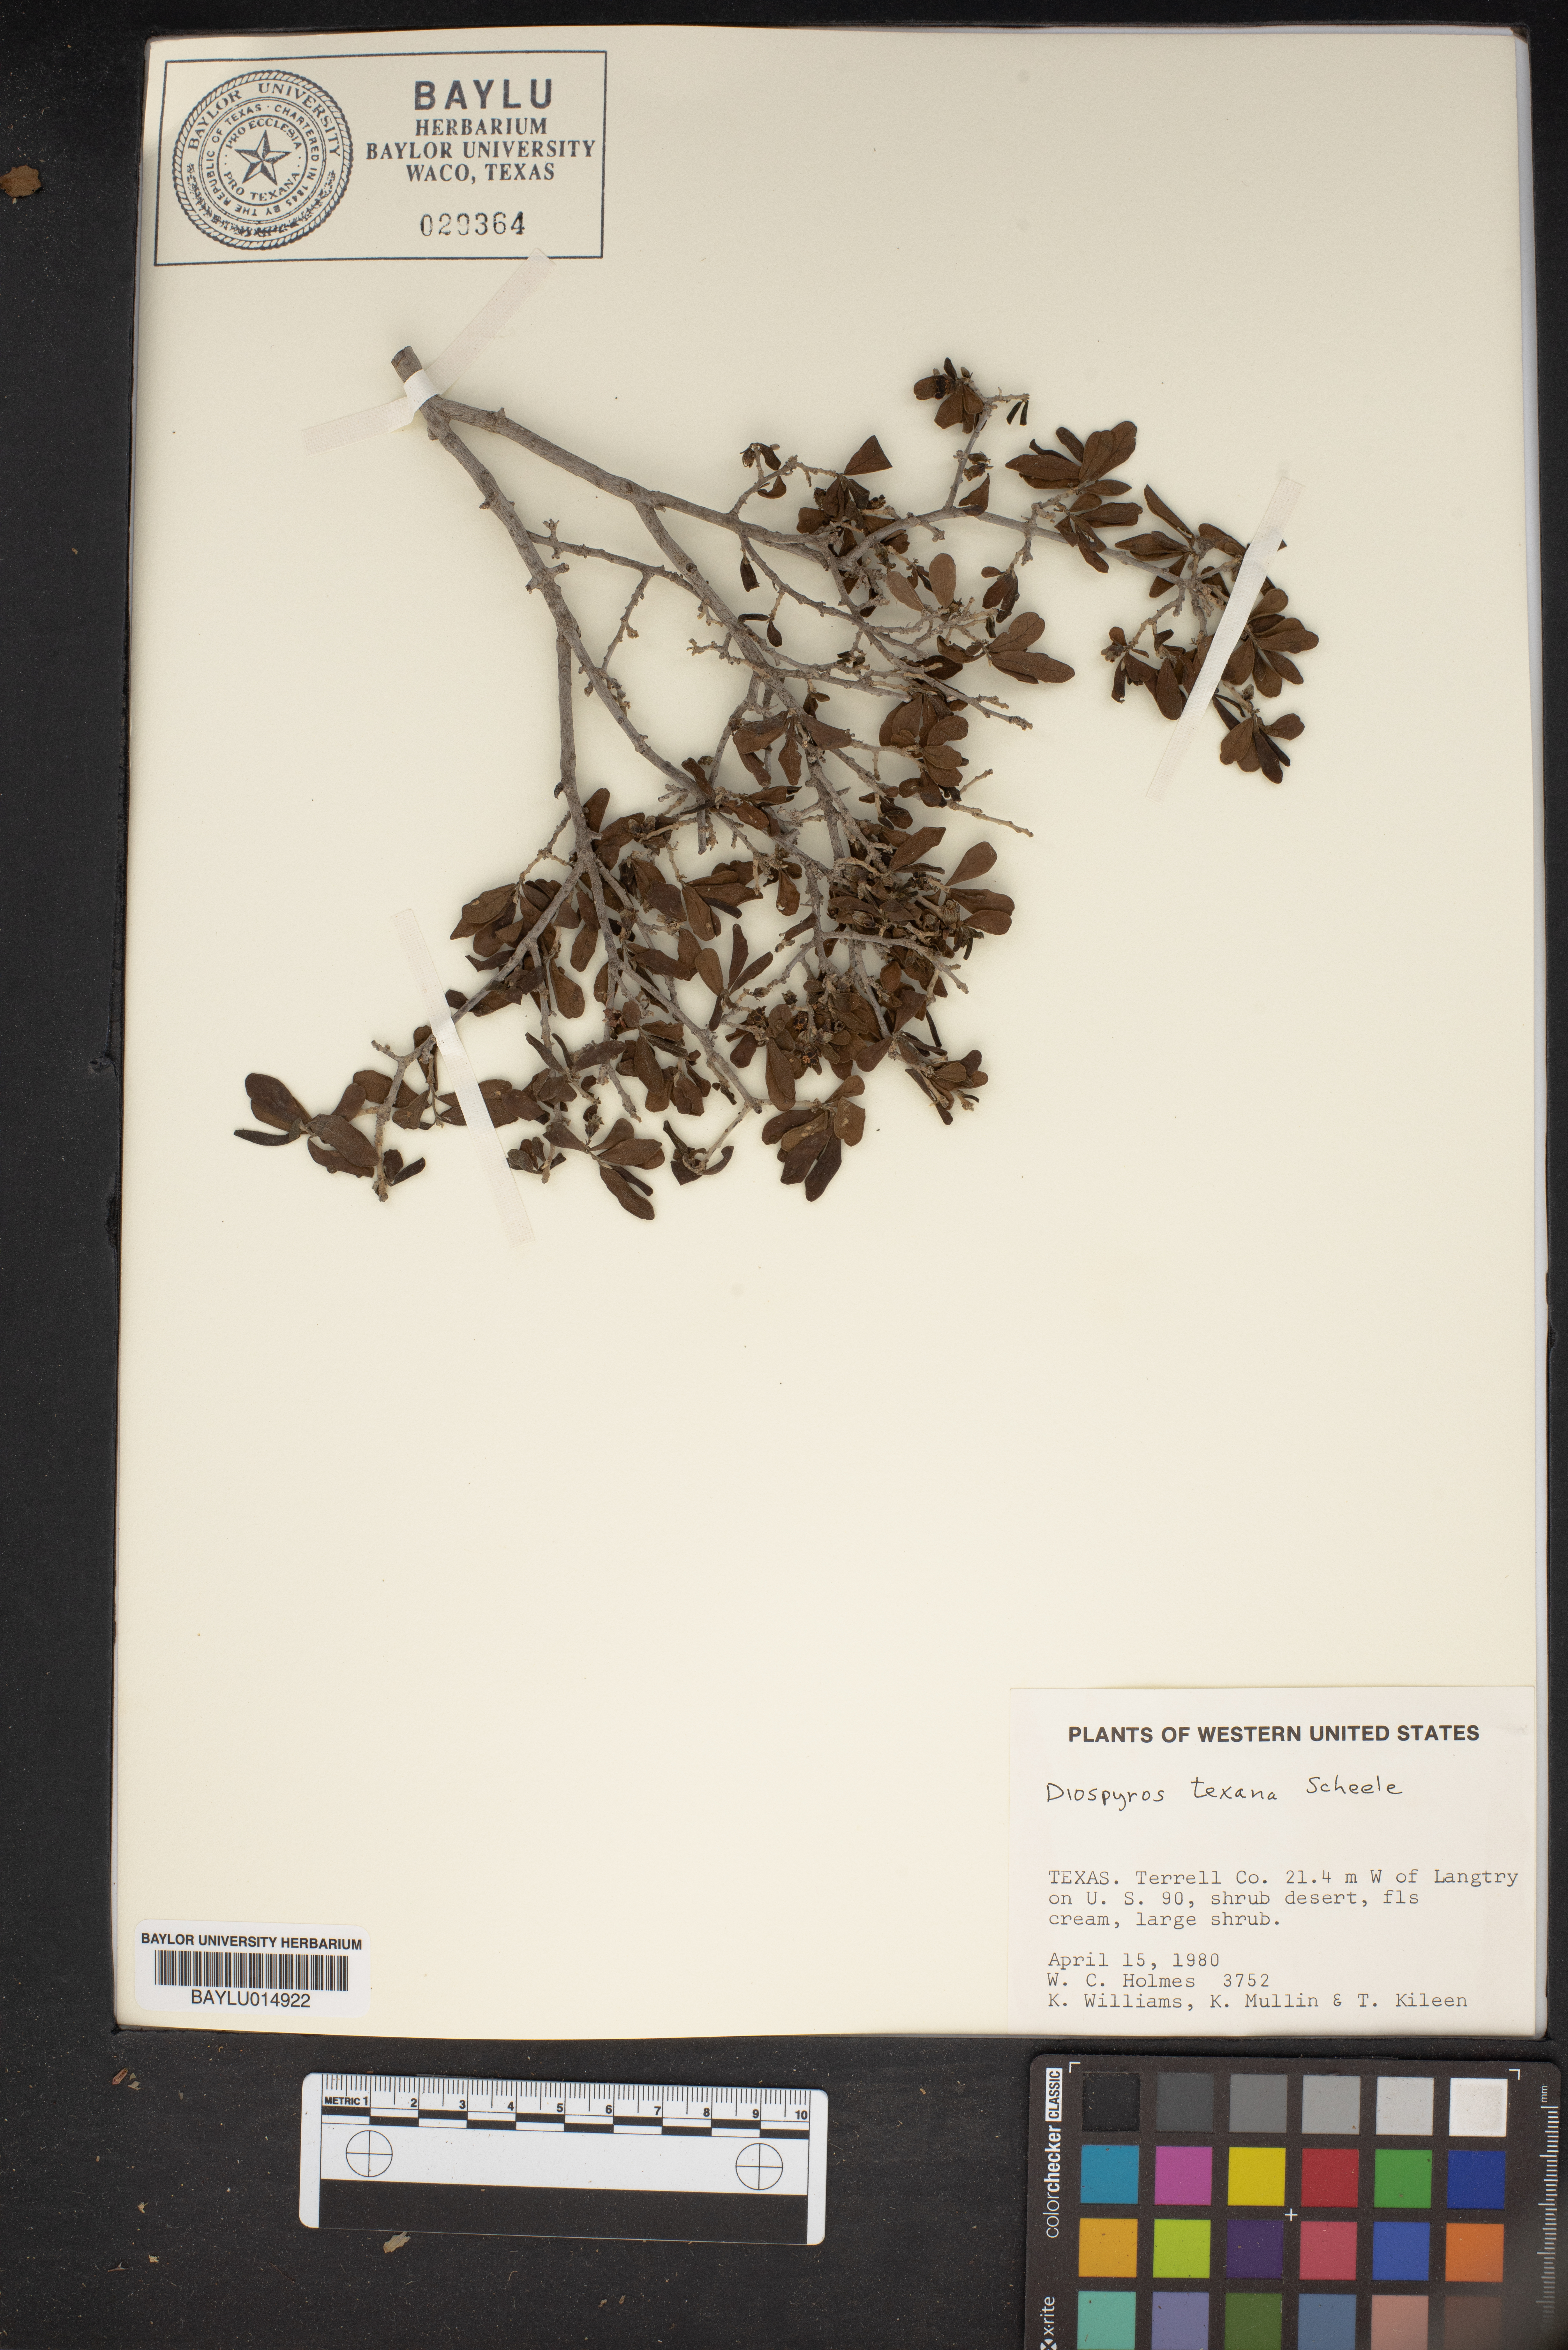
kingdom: Plantae
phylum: Tracheophyta
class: Magnoliopsida
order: Ericales
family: Ebenaceae
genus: Diospyros
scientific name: Diospyros texana
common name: Texas persimmon
